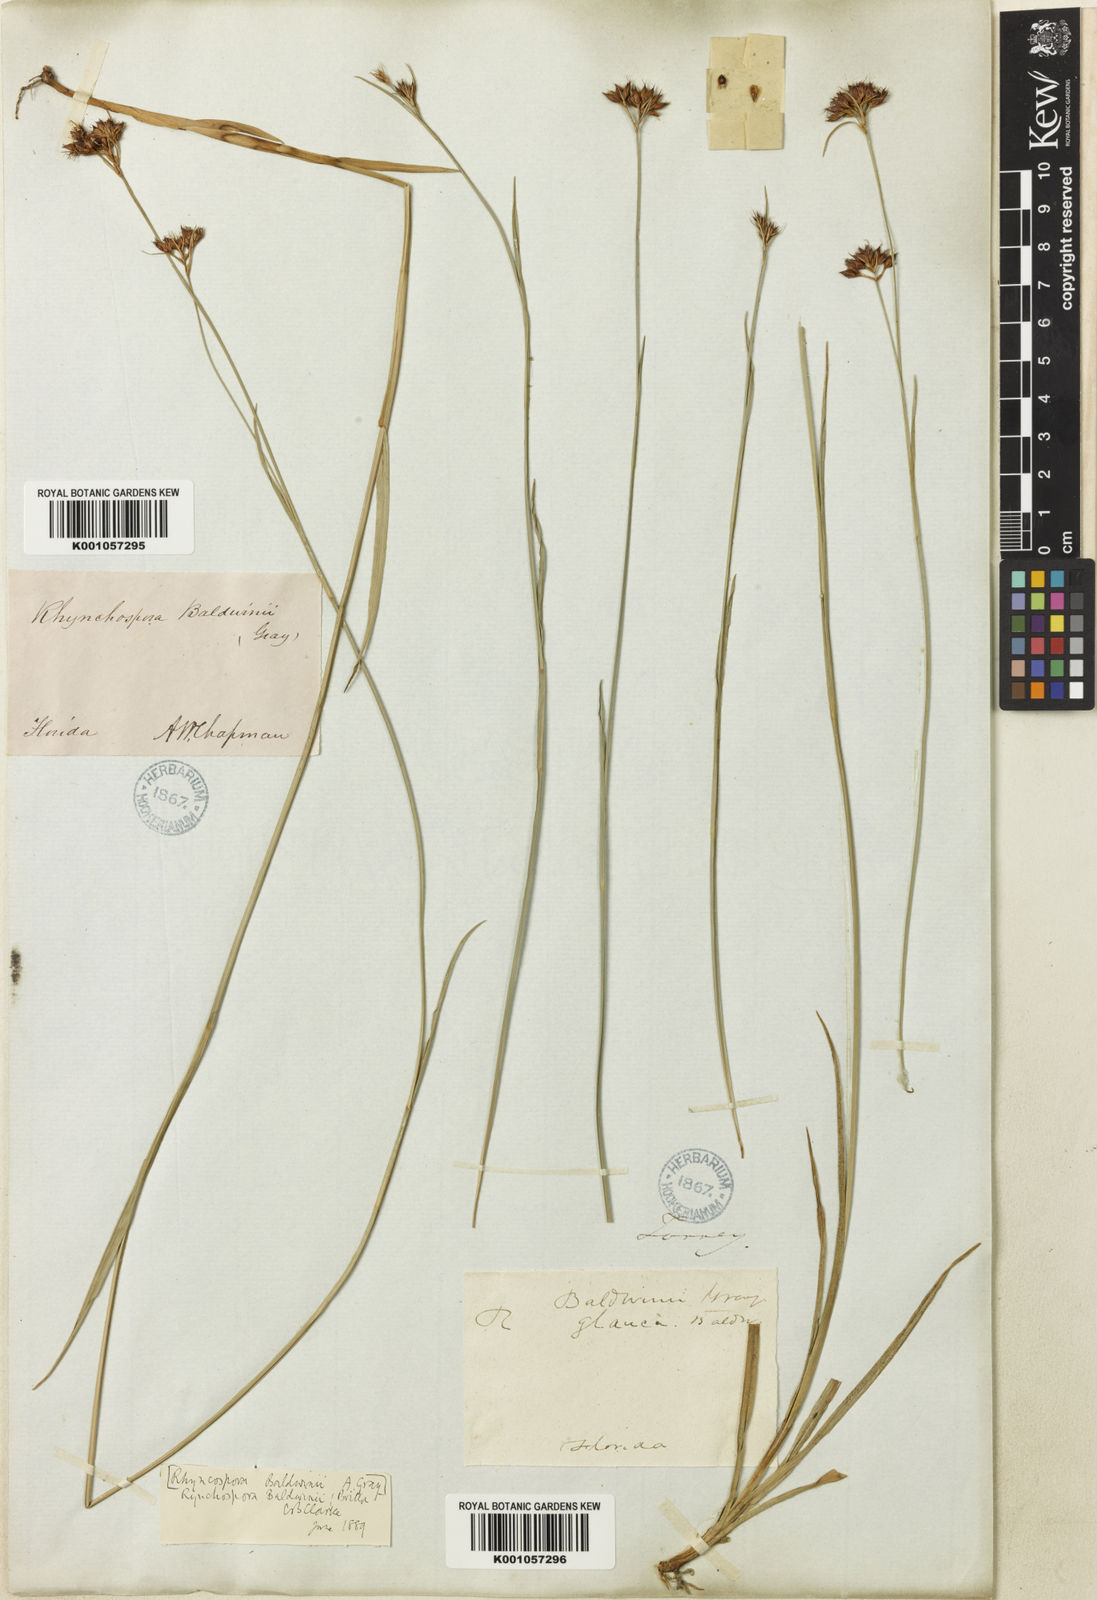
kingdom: Plantae
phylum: Tracheophyta
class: Liliopsida
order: Poales
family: Cyperaceae
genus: Rhynchospora
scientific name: Rhynchospora baldwinii
